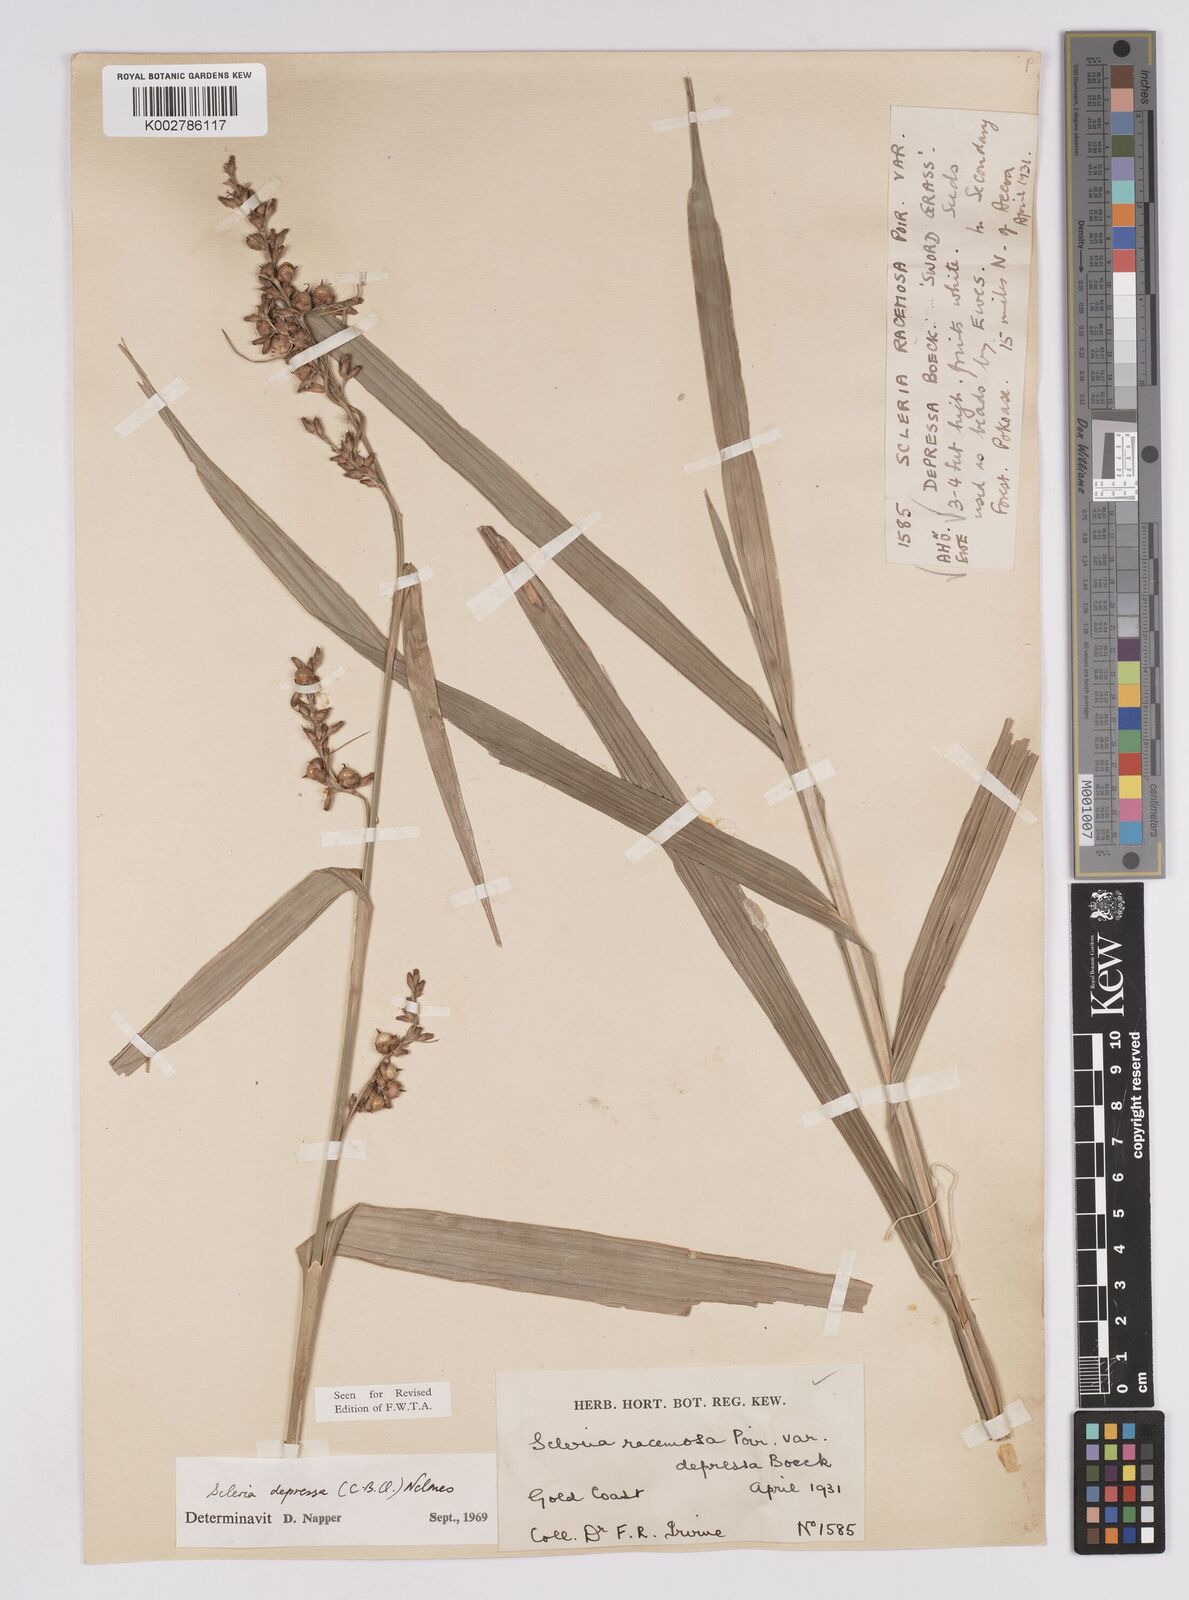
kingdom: Plantae
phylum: Tracheophyta
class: Liliopsida
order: Poales
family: Cyperaceae
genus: Scleria
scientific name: Scleria depressa
